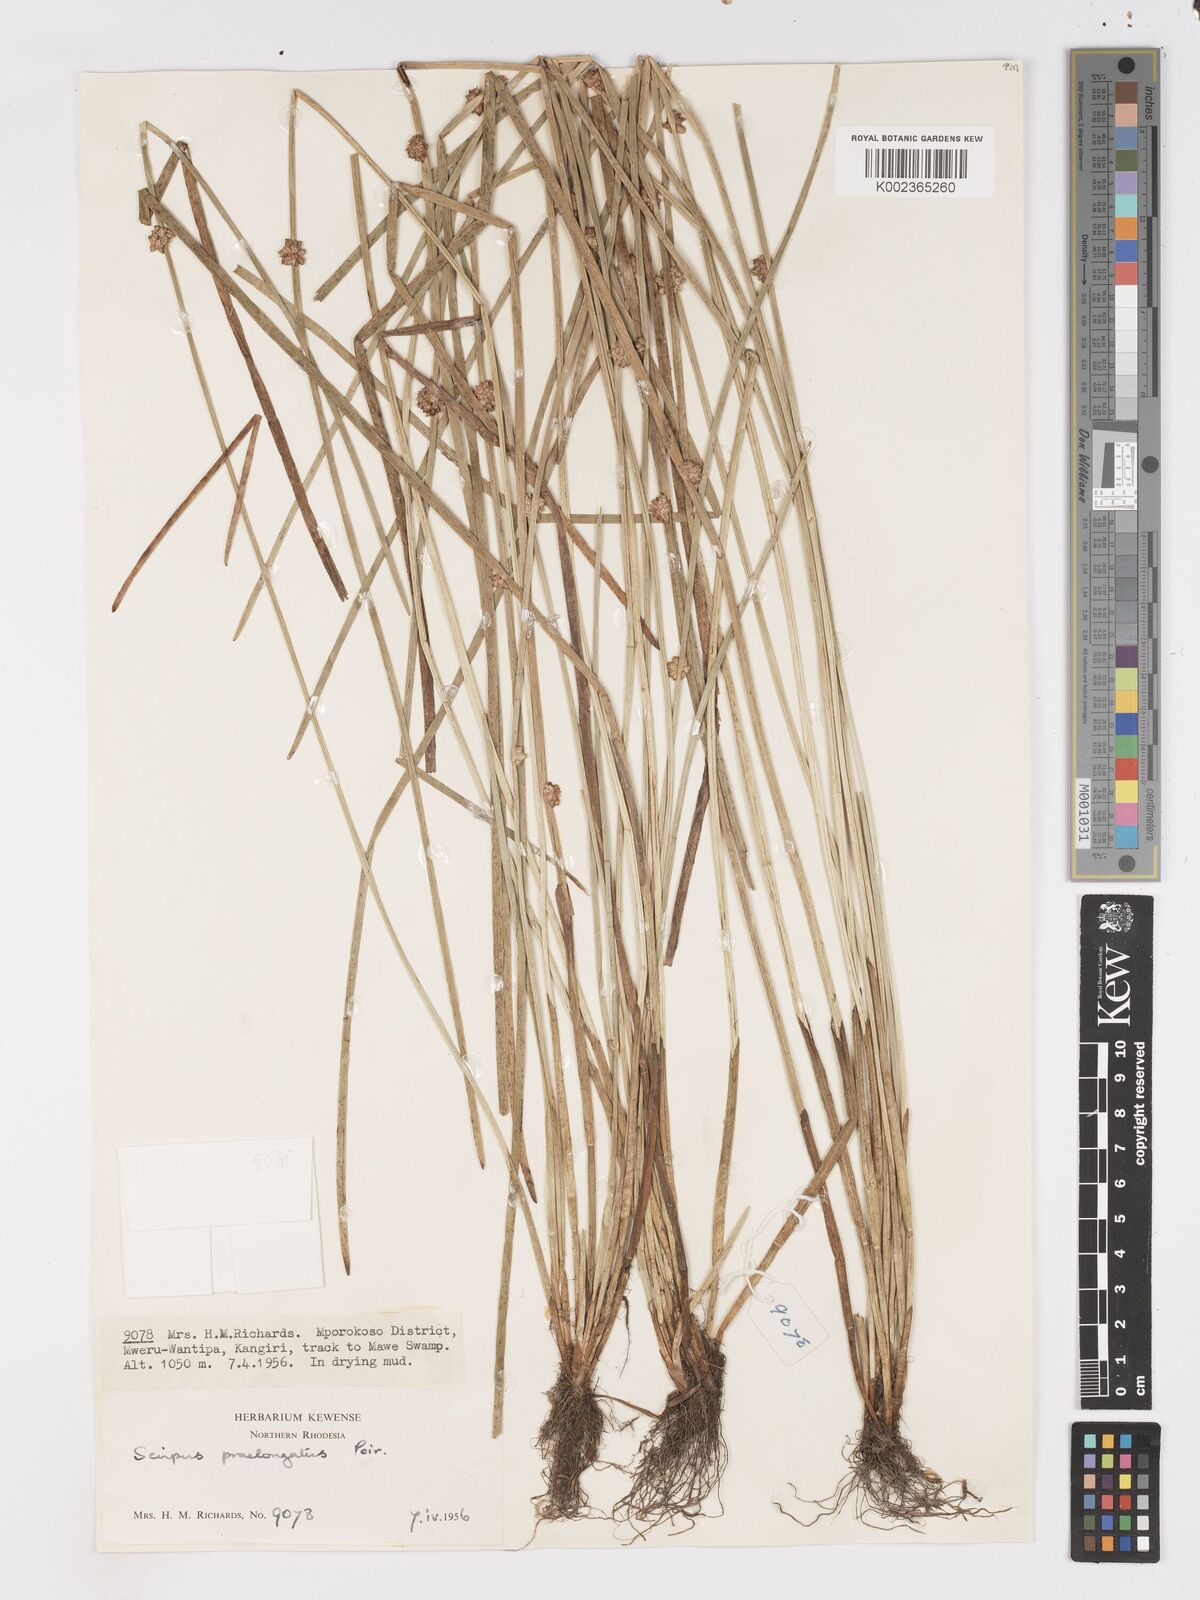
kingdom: Plantae
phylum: Tracheophyta
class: Liliopsida
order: Poales
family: Cyperaceae
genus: Schoenoplectiella
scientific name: Schoenoplectiella senegalensis
